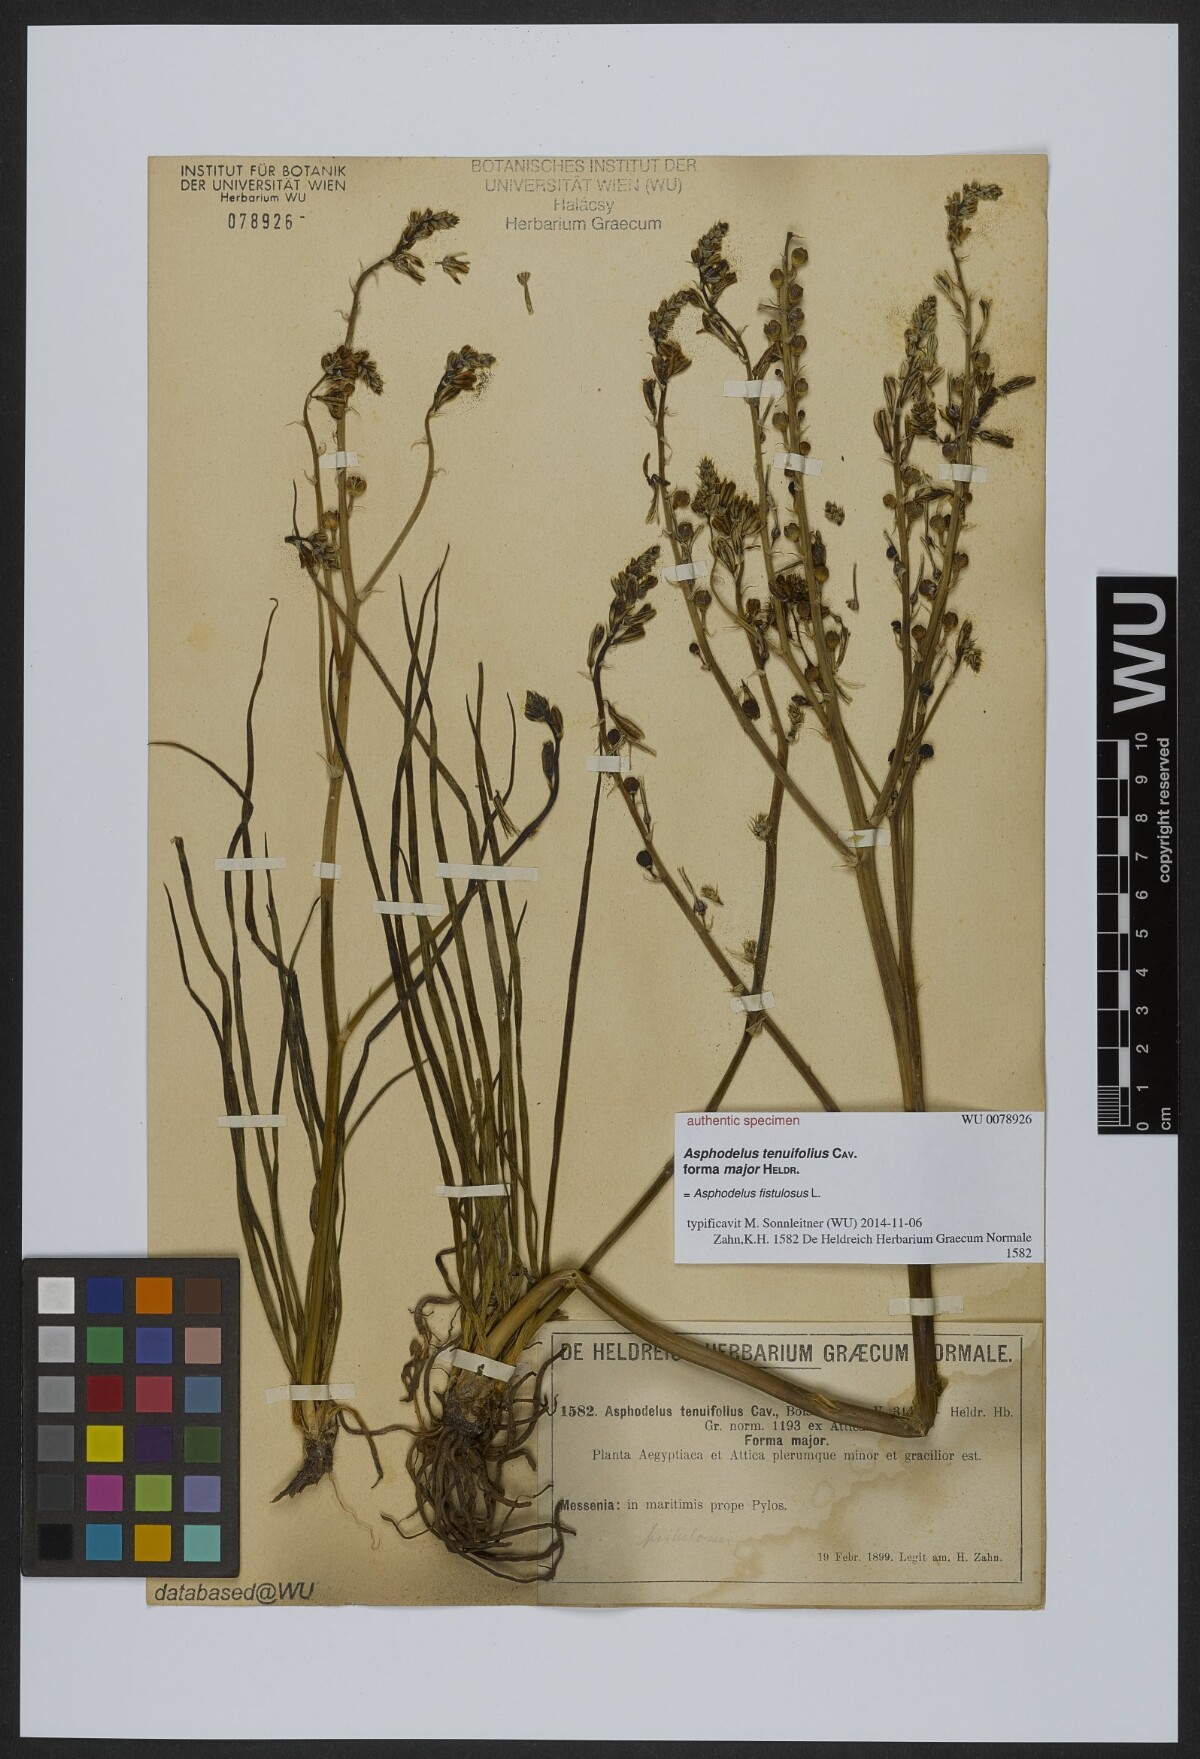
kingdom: Plantae
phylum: Tracheophyta
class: Liliopsida
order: Asparagales
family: Asphodelaceae
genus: Asphodelus
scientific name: Asphodelus tenuifolius
